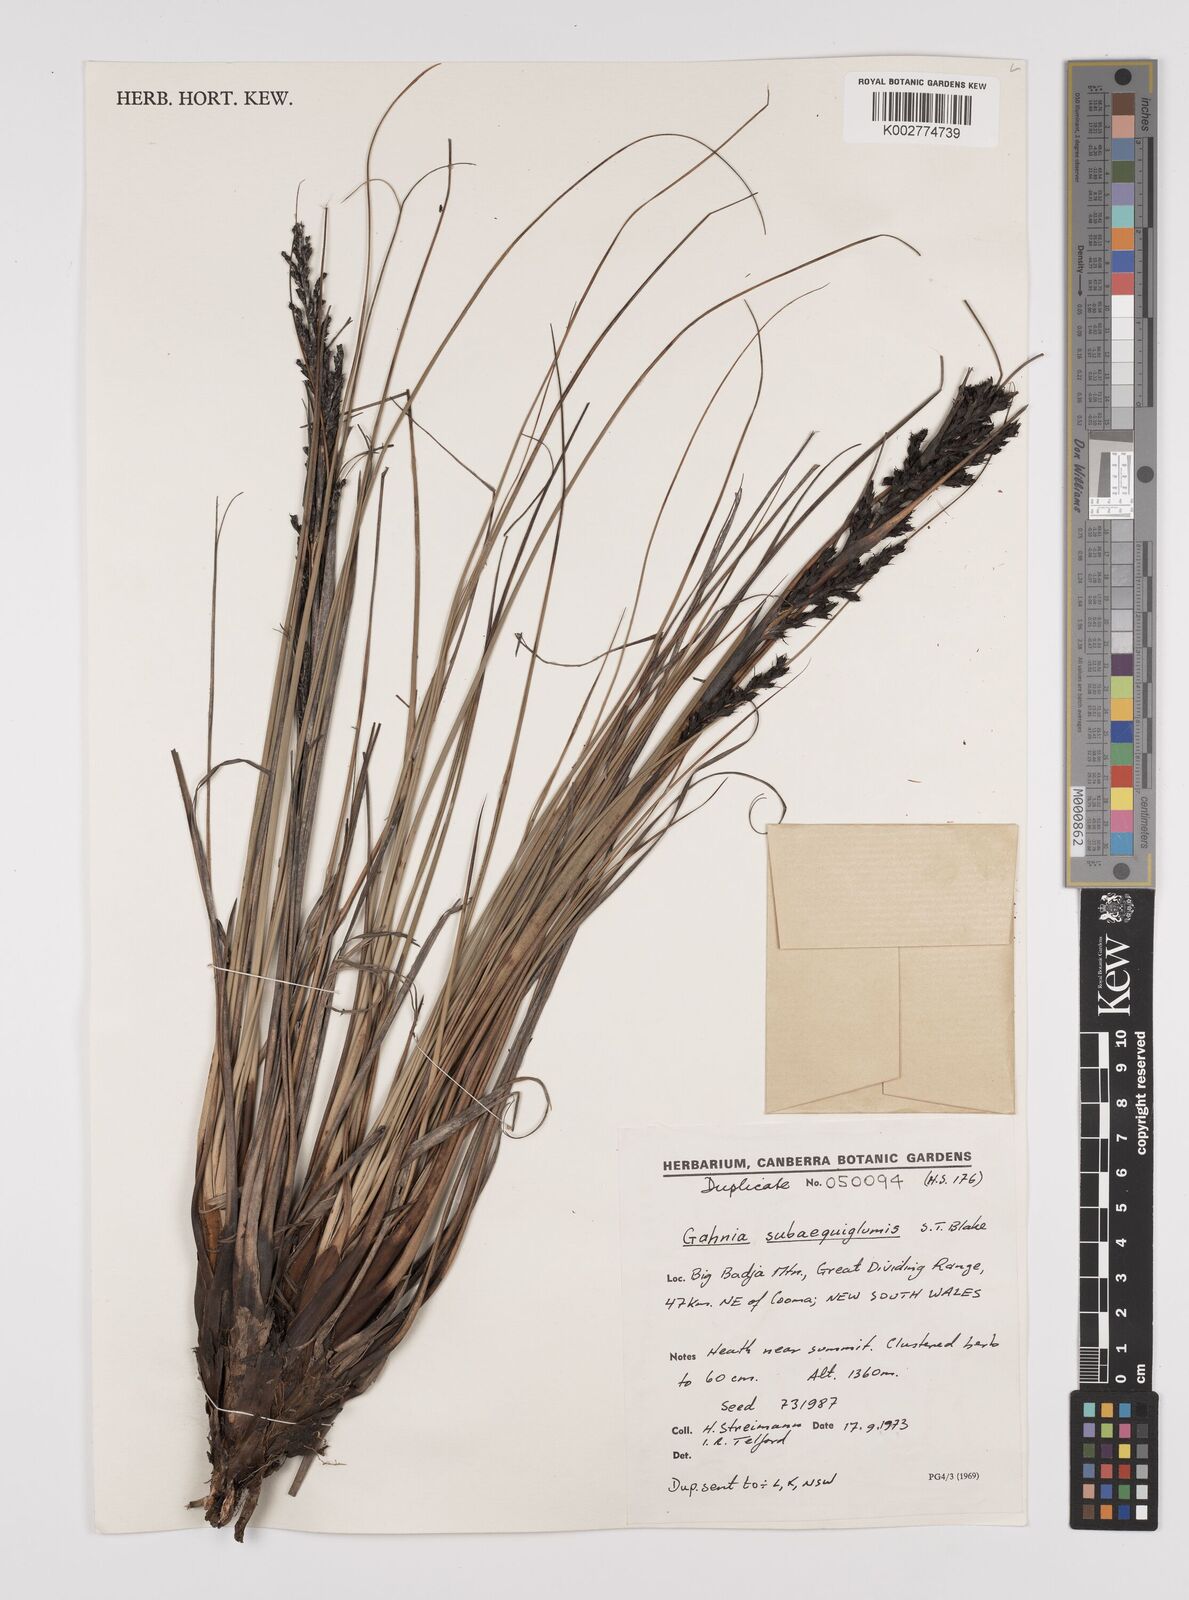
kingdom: Plantae
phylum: Tracheophyta
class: Liliopsida
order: Poales
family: Cyperaceae
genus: Gahnia
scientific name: Gahnia subaequiglumis
